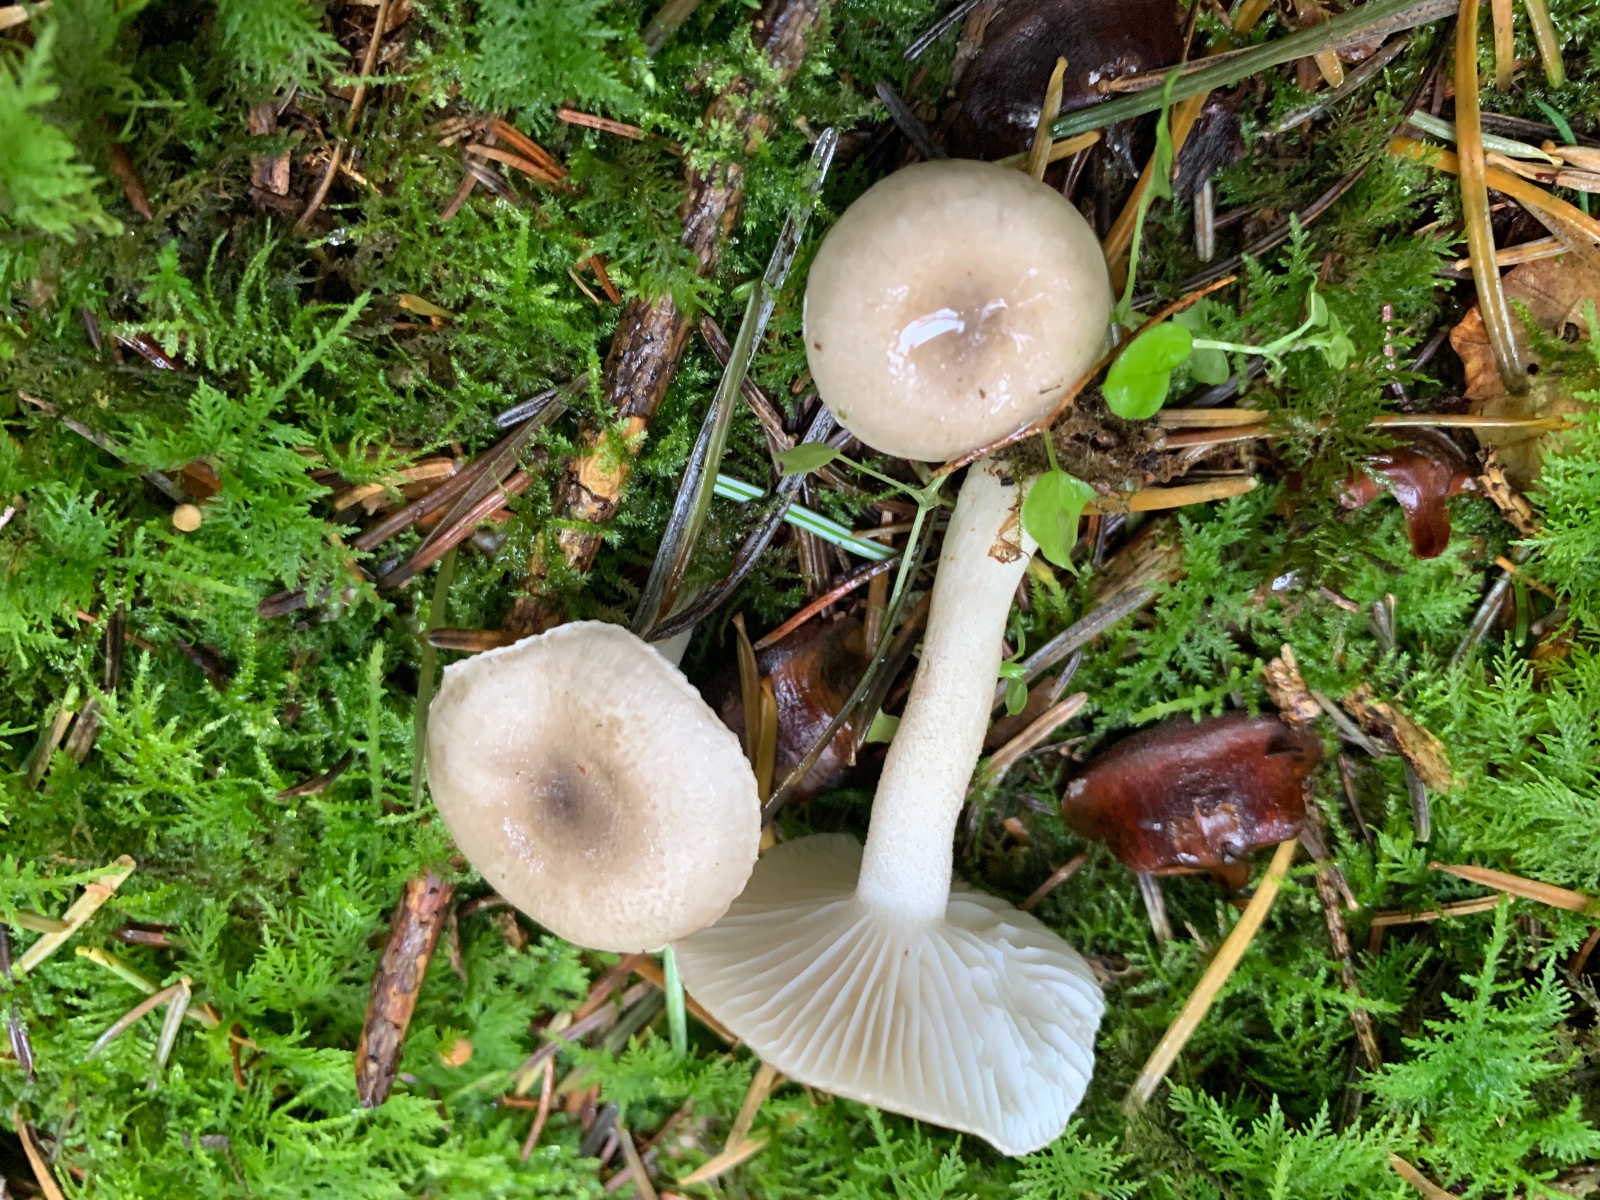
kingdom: Fungi
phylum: Basidiomycota
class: Agaricomycetes
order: Agaricales
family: Hygrophoraceae
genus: Hygrophorus
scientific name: Hygrophorus pustulatus
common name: mørkprikket sneglehat
